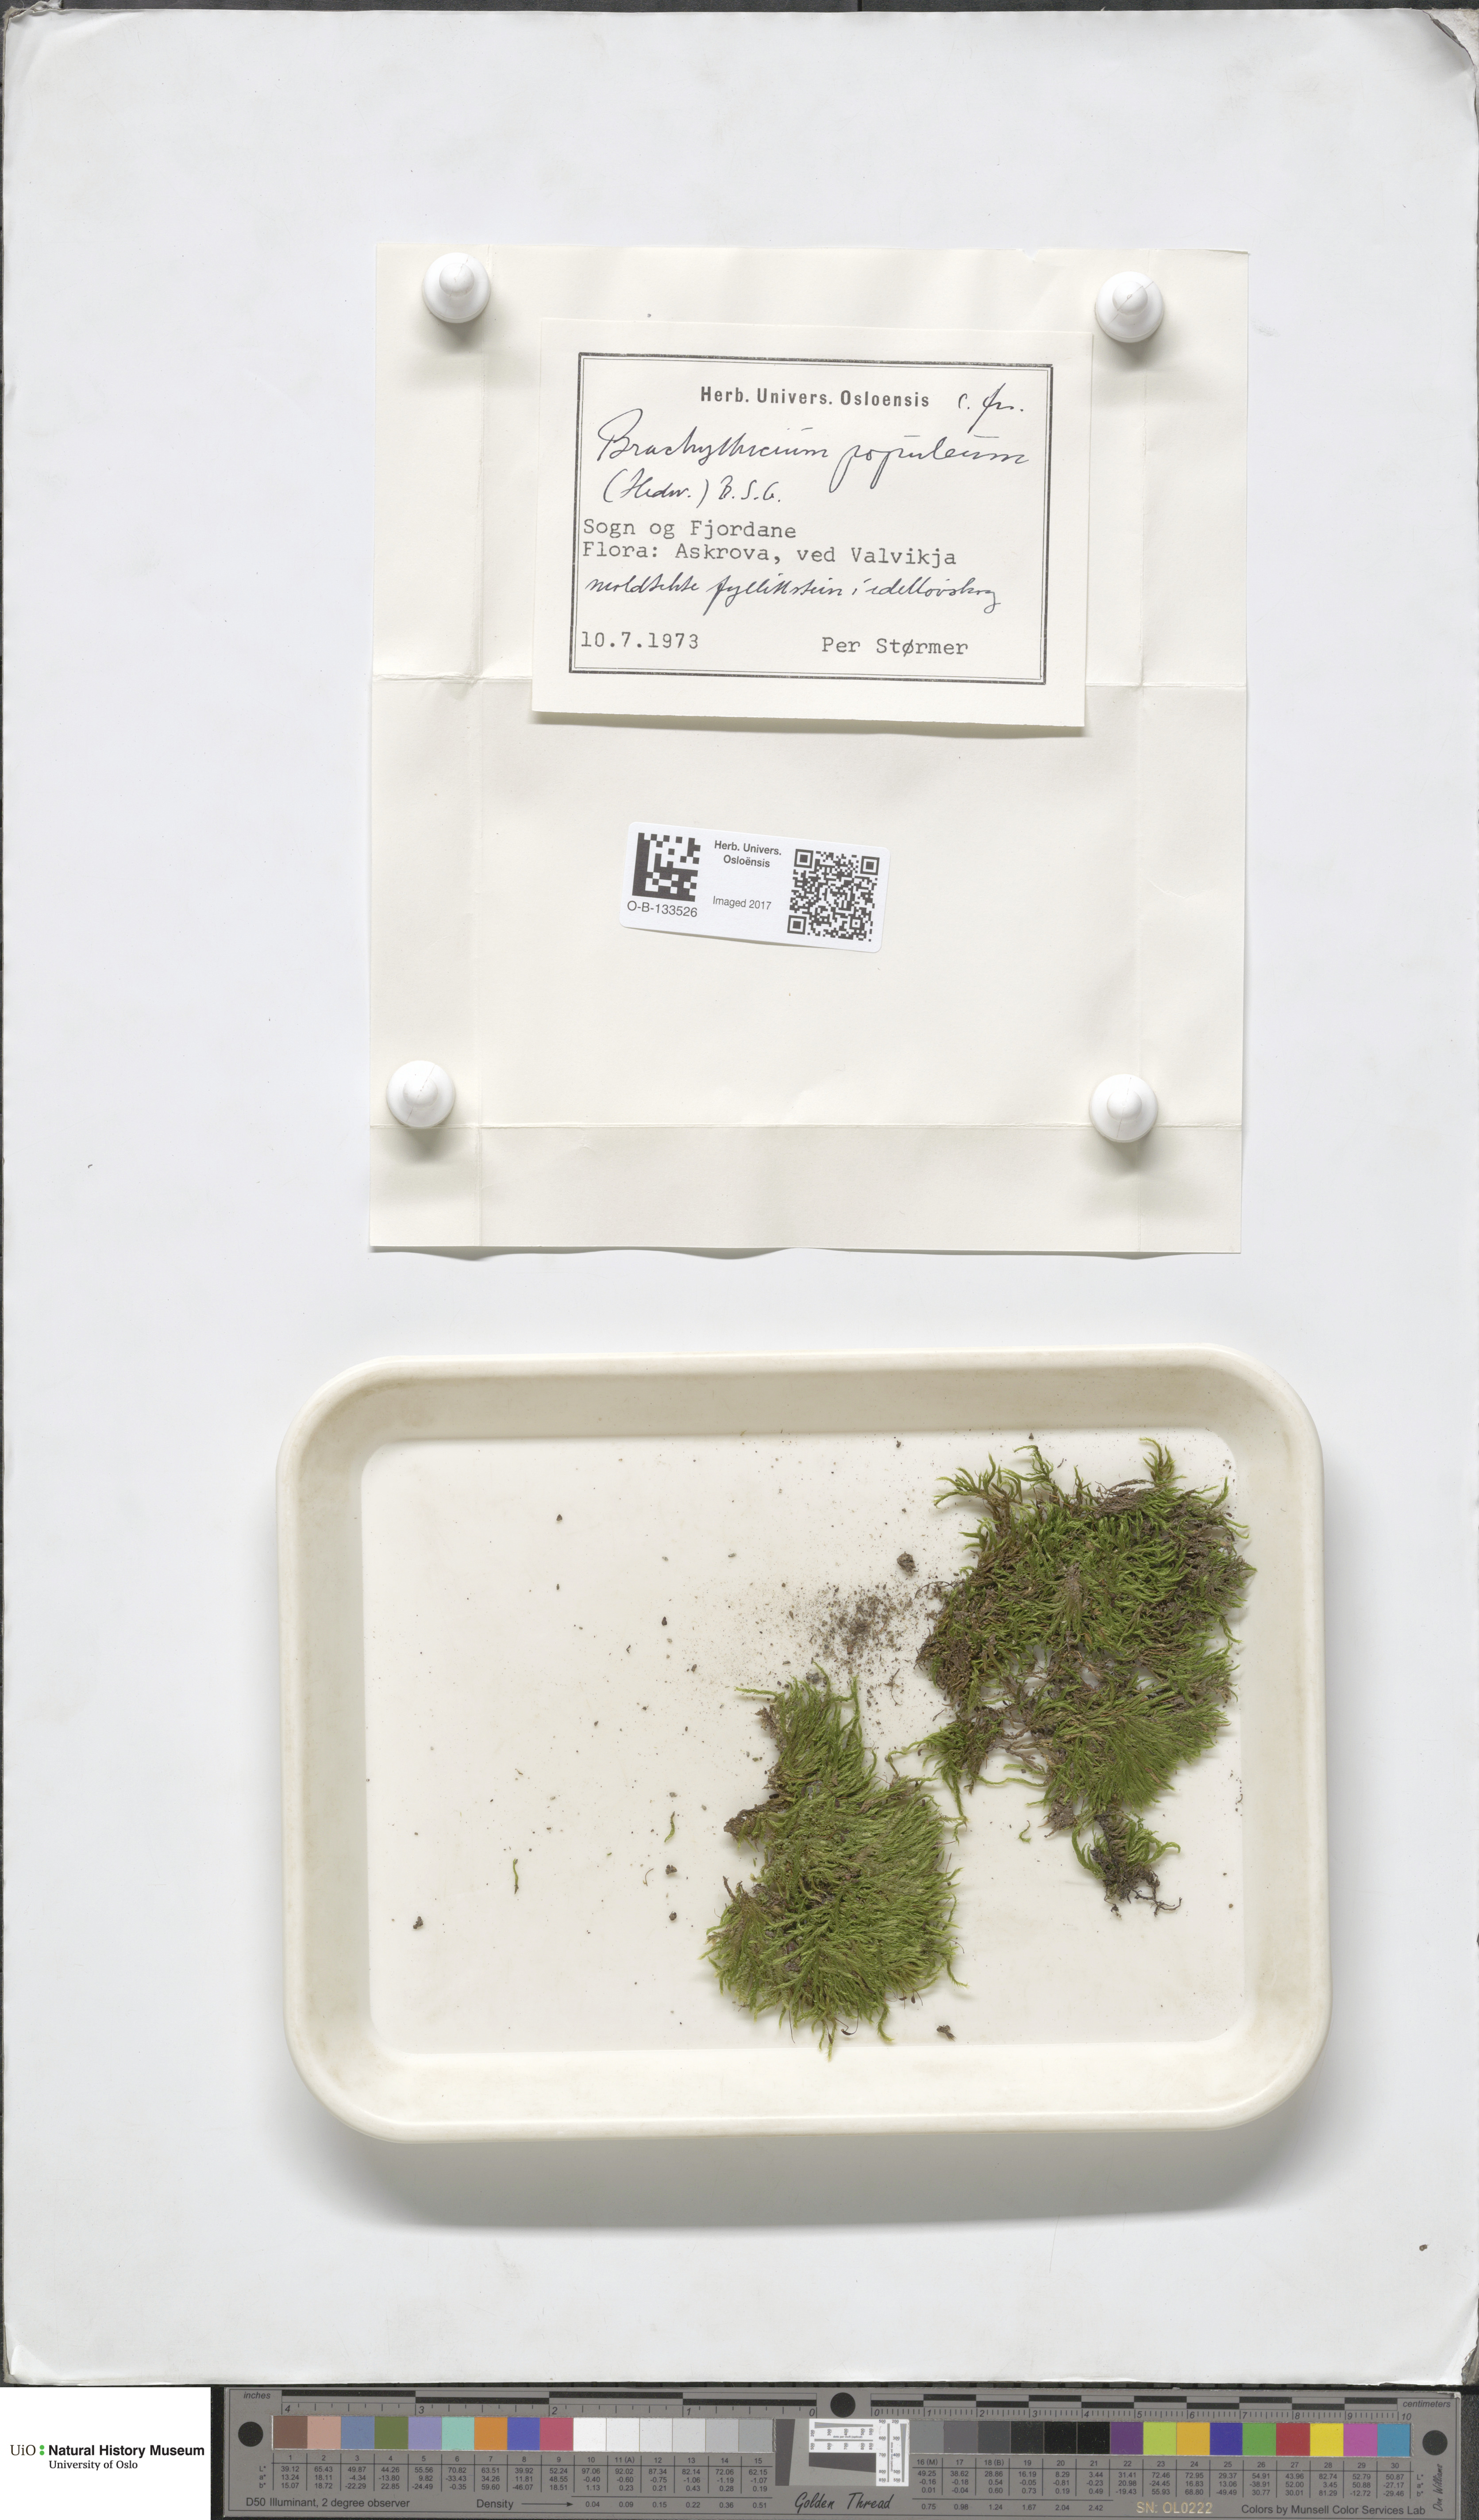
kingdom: Plantae
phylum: Bryophyta
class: Bryopsida
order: Hypnales
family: Brachytheciaceae
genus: Sciuro-hypnum
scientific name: Sciuro-hypnum plumosum
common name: Rusty feather-moss
